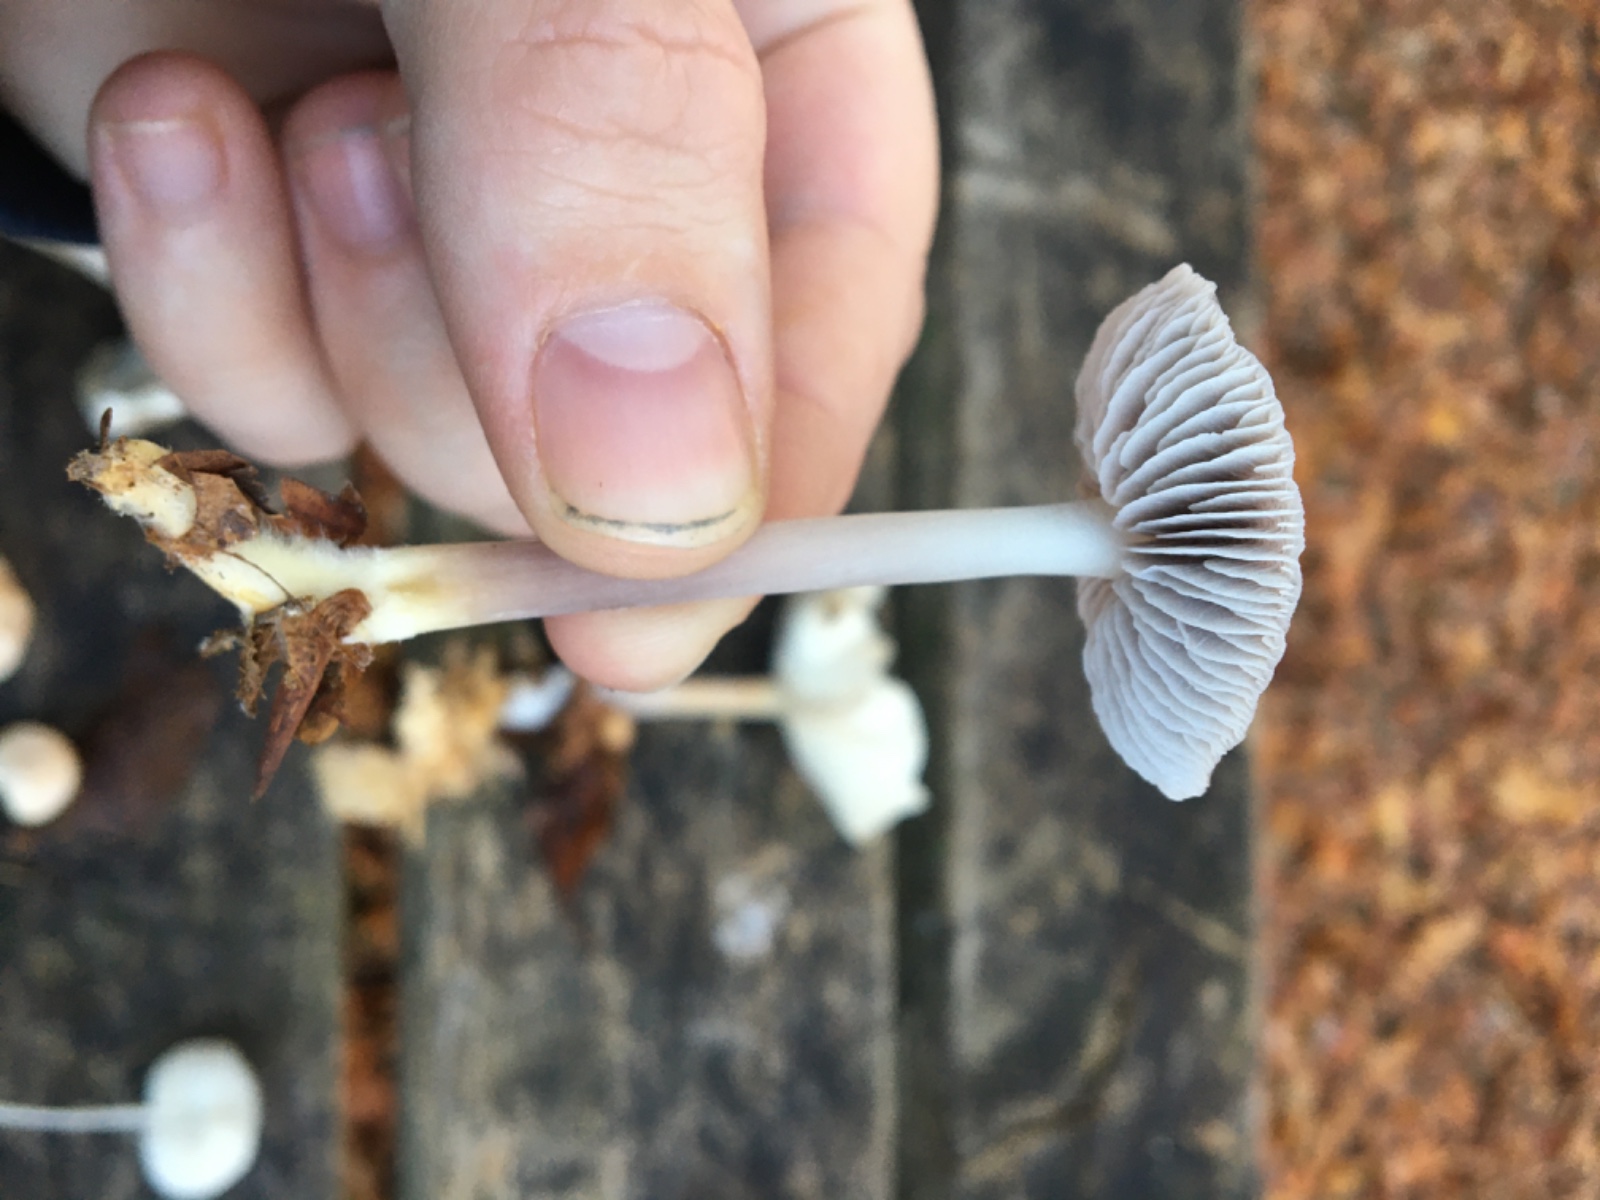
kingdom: Fungi
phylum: Basidiomycota
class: Agaricomycetes
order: Agaricales
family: Mycenaceae
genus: Prunulus
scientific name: Prunulus diosmus
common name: tobaks-huesvamp
